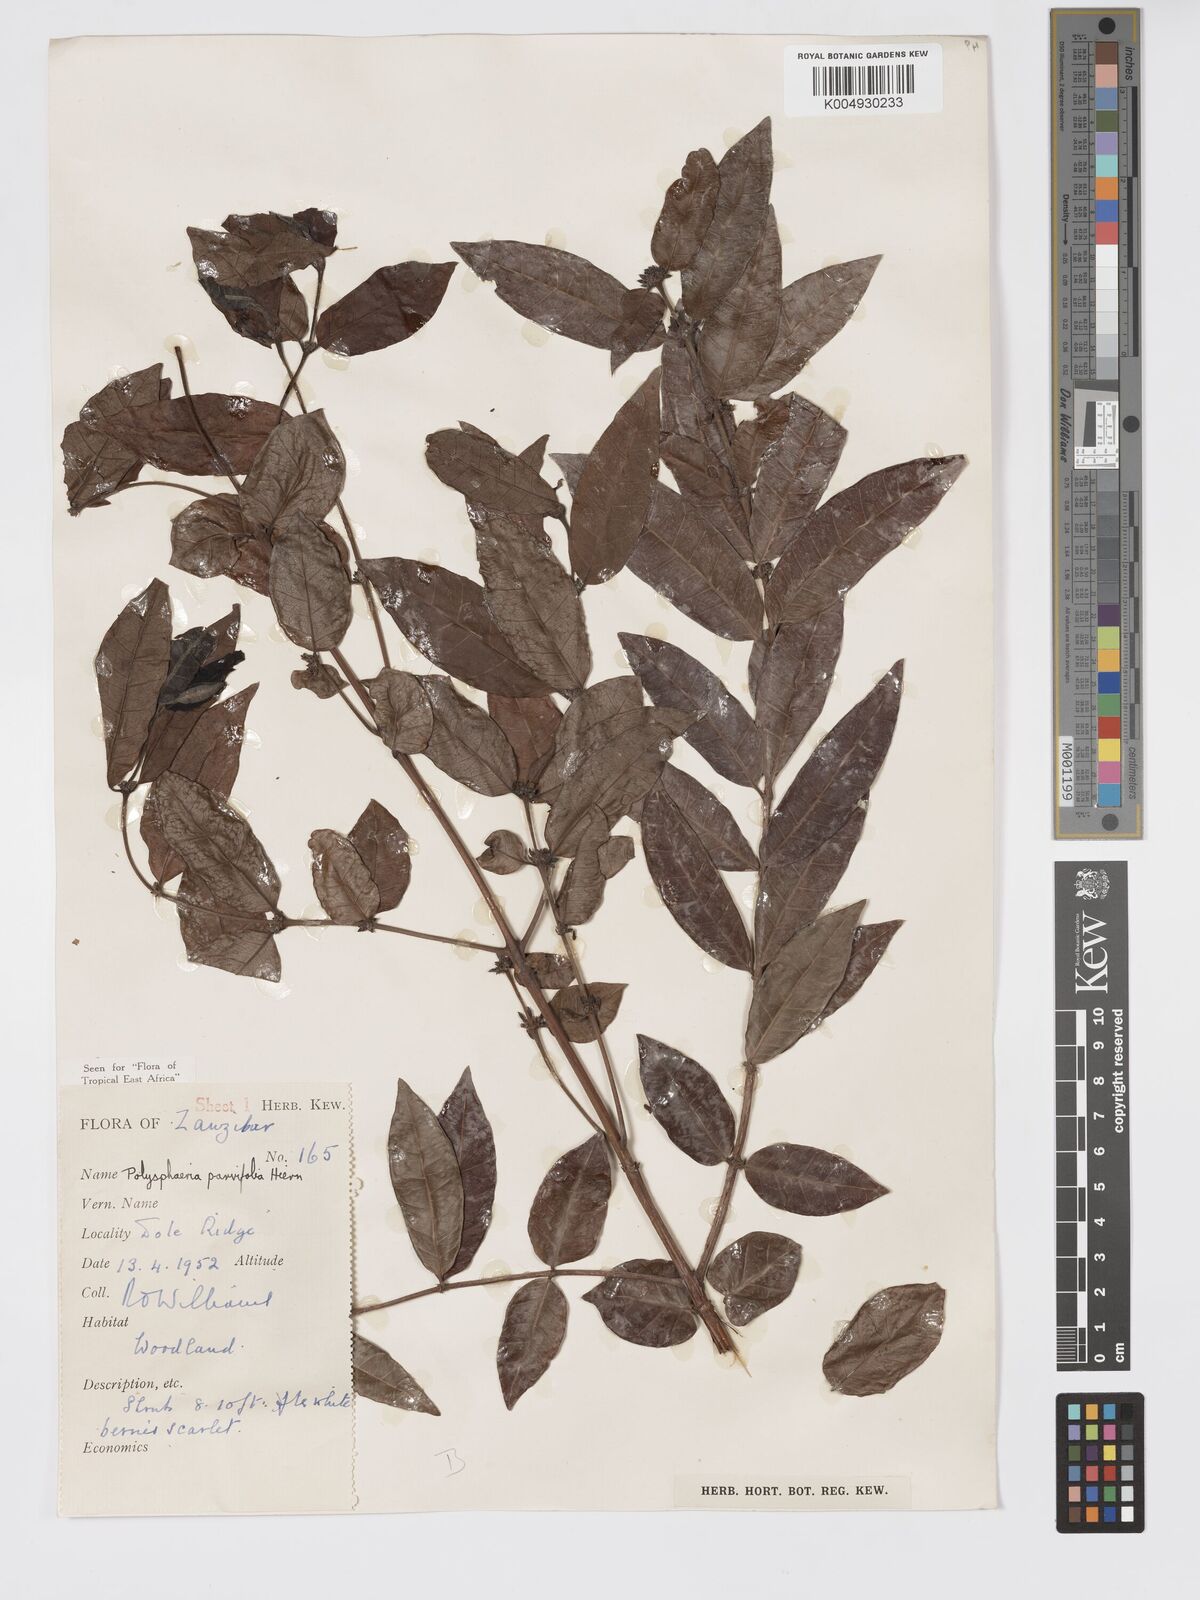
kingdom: Plantae
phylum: Tracheophyta
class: Magnoliopsida
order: Gentianales
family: Rubiaceae
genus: Polysphaeria
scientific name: Polysphaeria parvifolia
